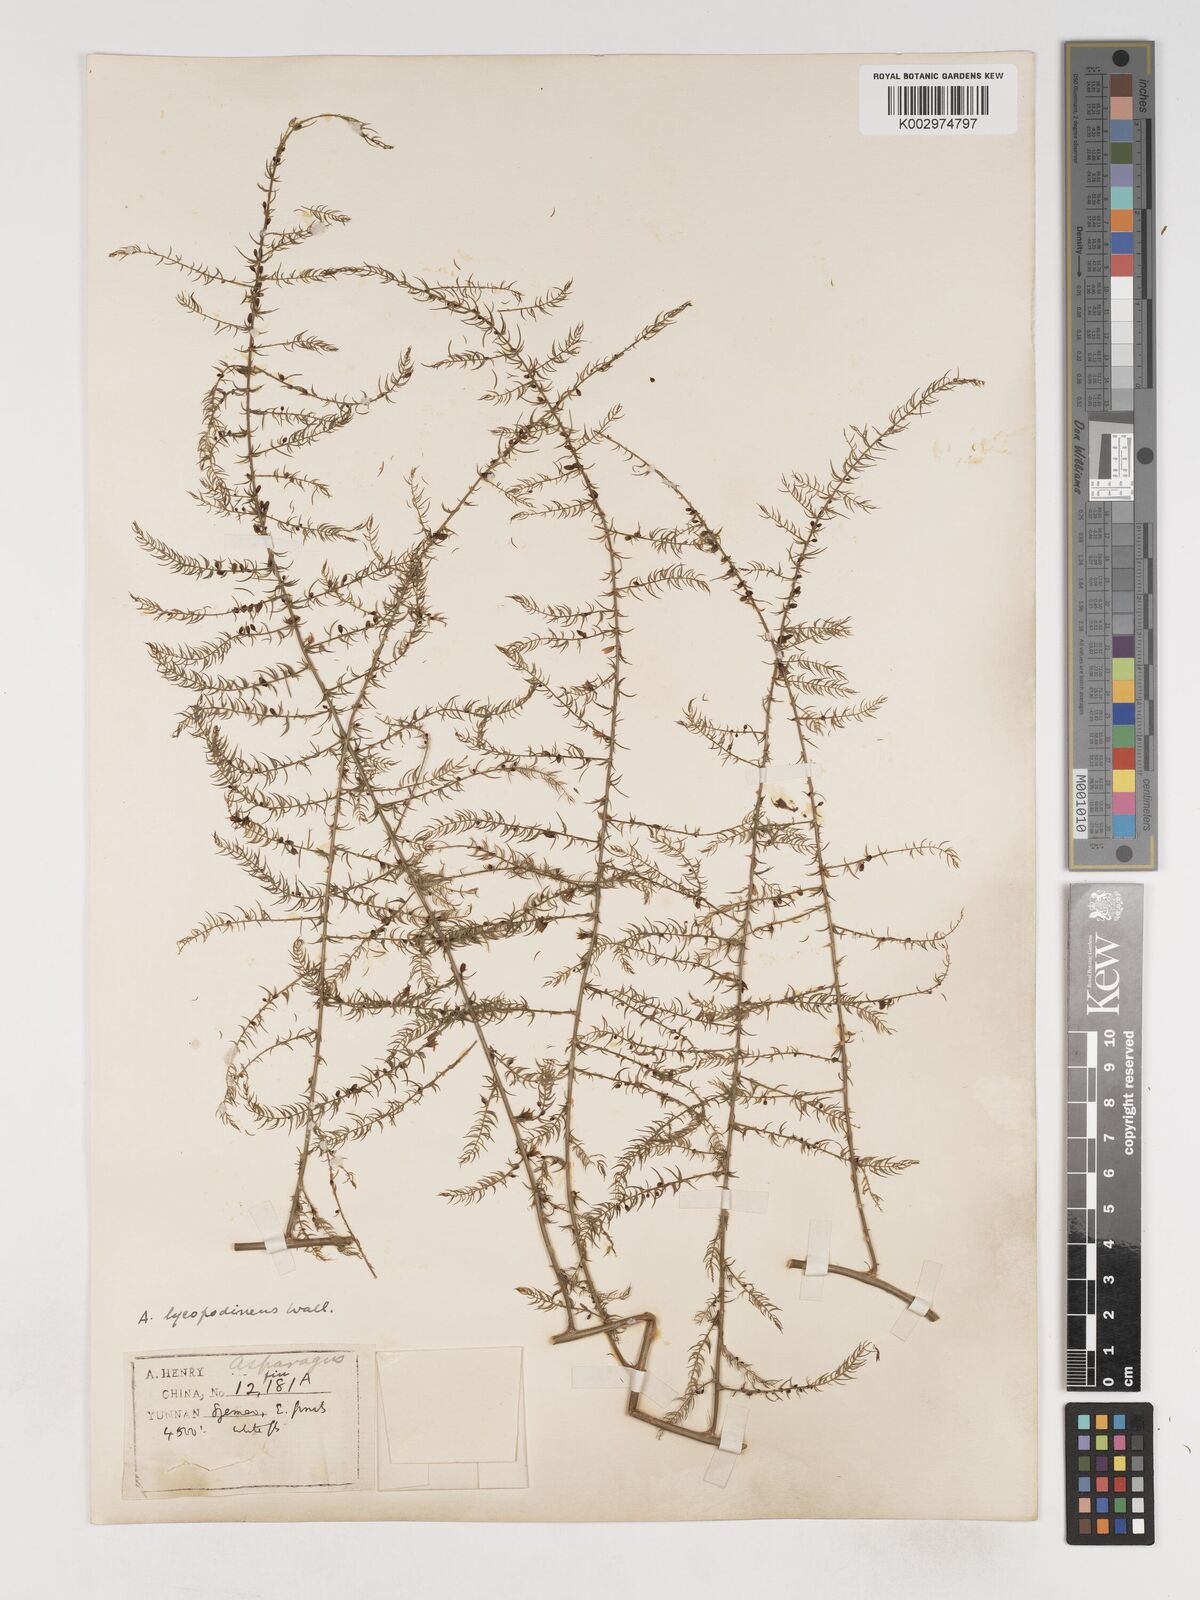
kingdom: Plantae
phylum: Tracheophyta
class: Liliopsida
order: Asparagales
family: Asparagaceae
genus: Asparagus
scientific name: Asparagus filicinus
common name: Fern asparagus
